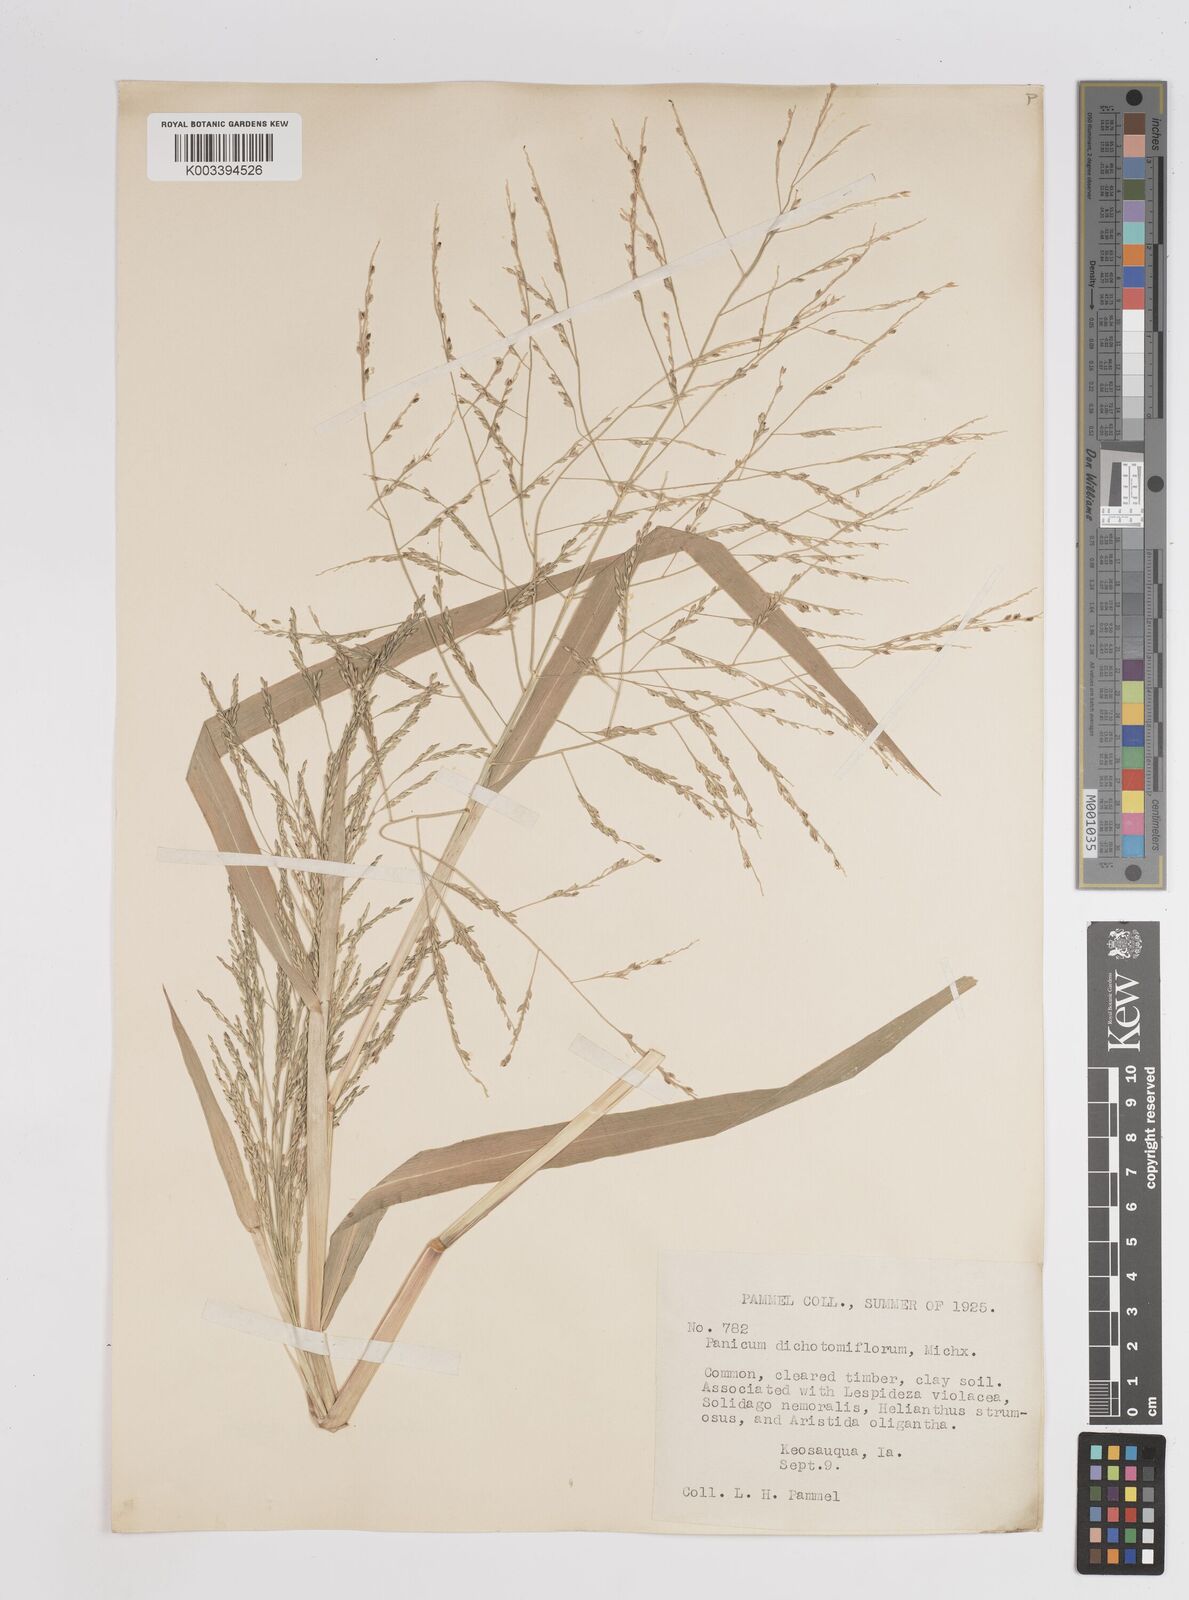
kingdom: Plantae
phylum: Tracheophyta
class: Liliopsida
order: Poales
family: Poaceae
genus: Panicum
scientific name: Panicum dichotomiflorum
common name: Autumn millet
